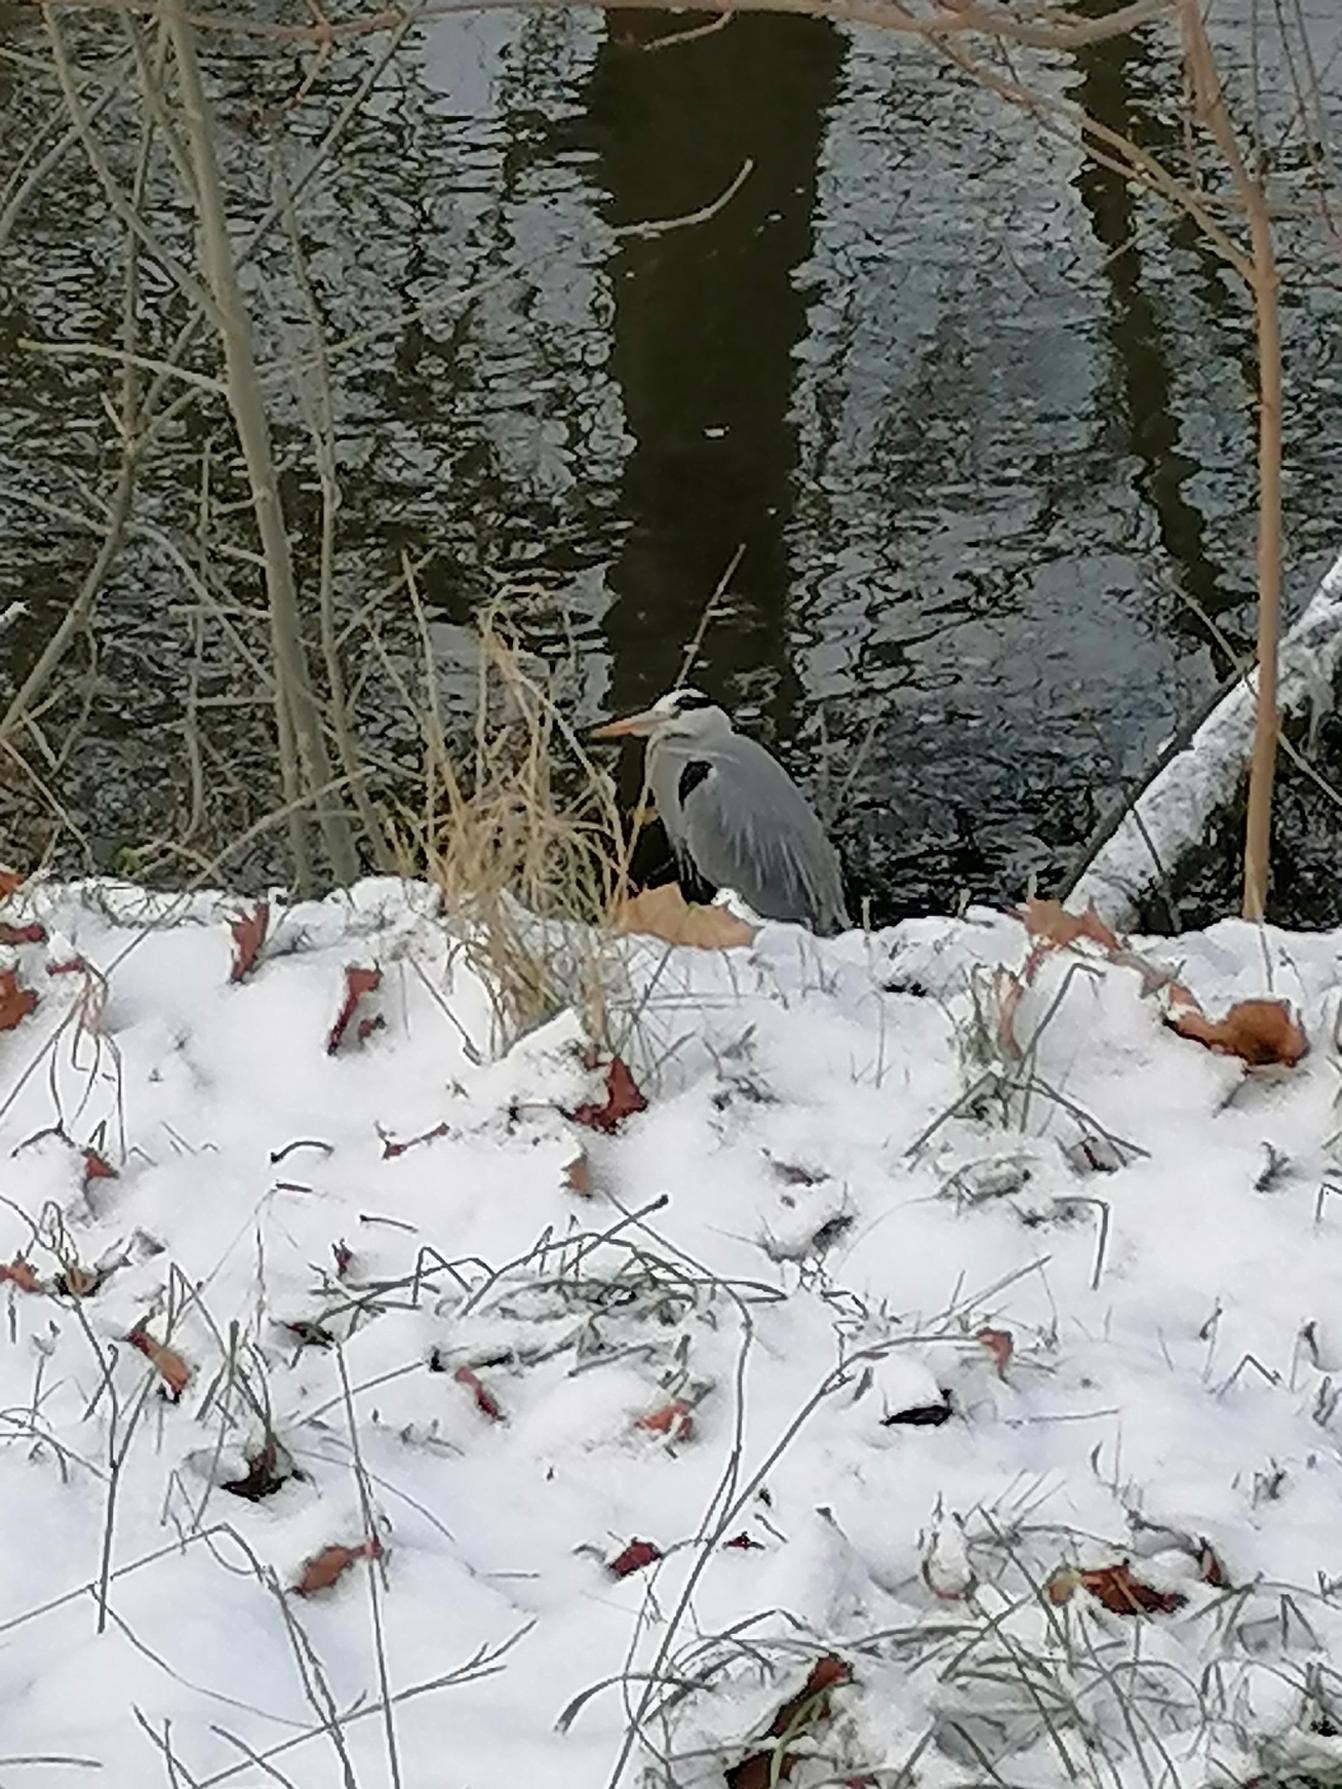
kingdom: Animalia
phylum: Chordata
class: Aves
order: Pelecaniformes
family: Ardeidae
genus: Ardea
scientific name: Ardea cinerea
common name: Fiskehejre
